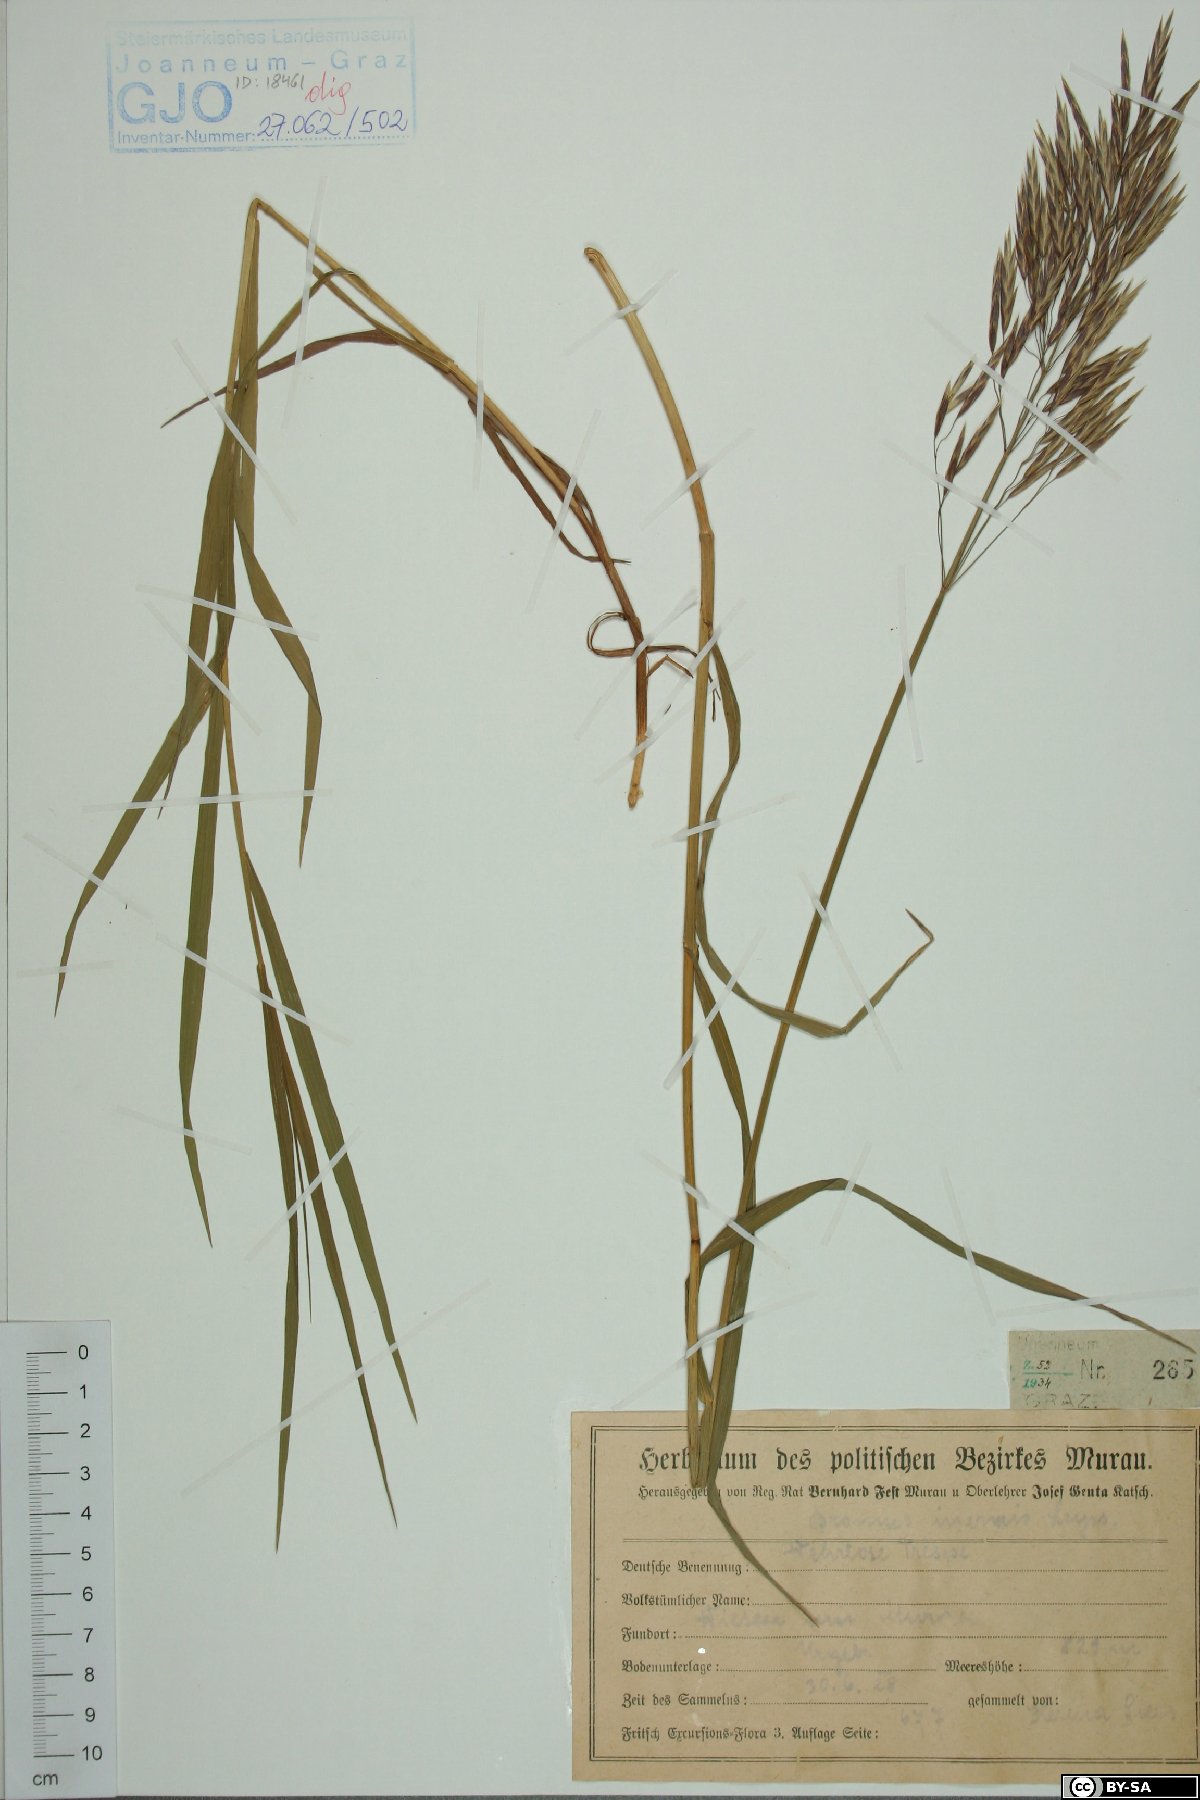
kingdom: Plantae
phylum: Tracheophyta
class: Liliopsida
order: Poales
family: Poaceae
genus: Bromus
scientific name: Bromus inermis
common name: Smooth brome
